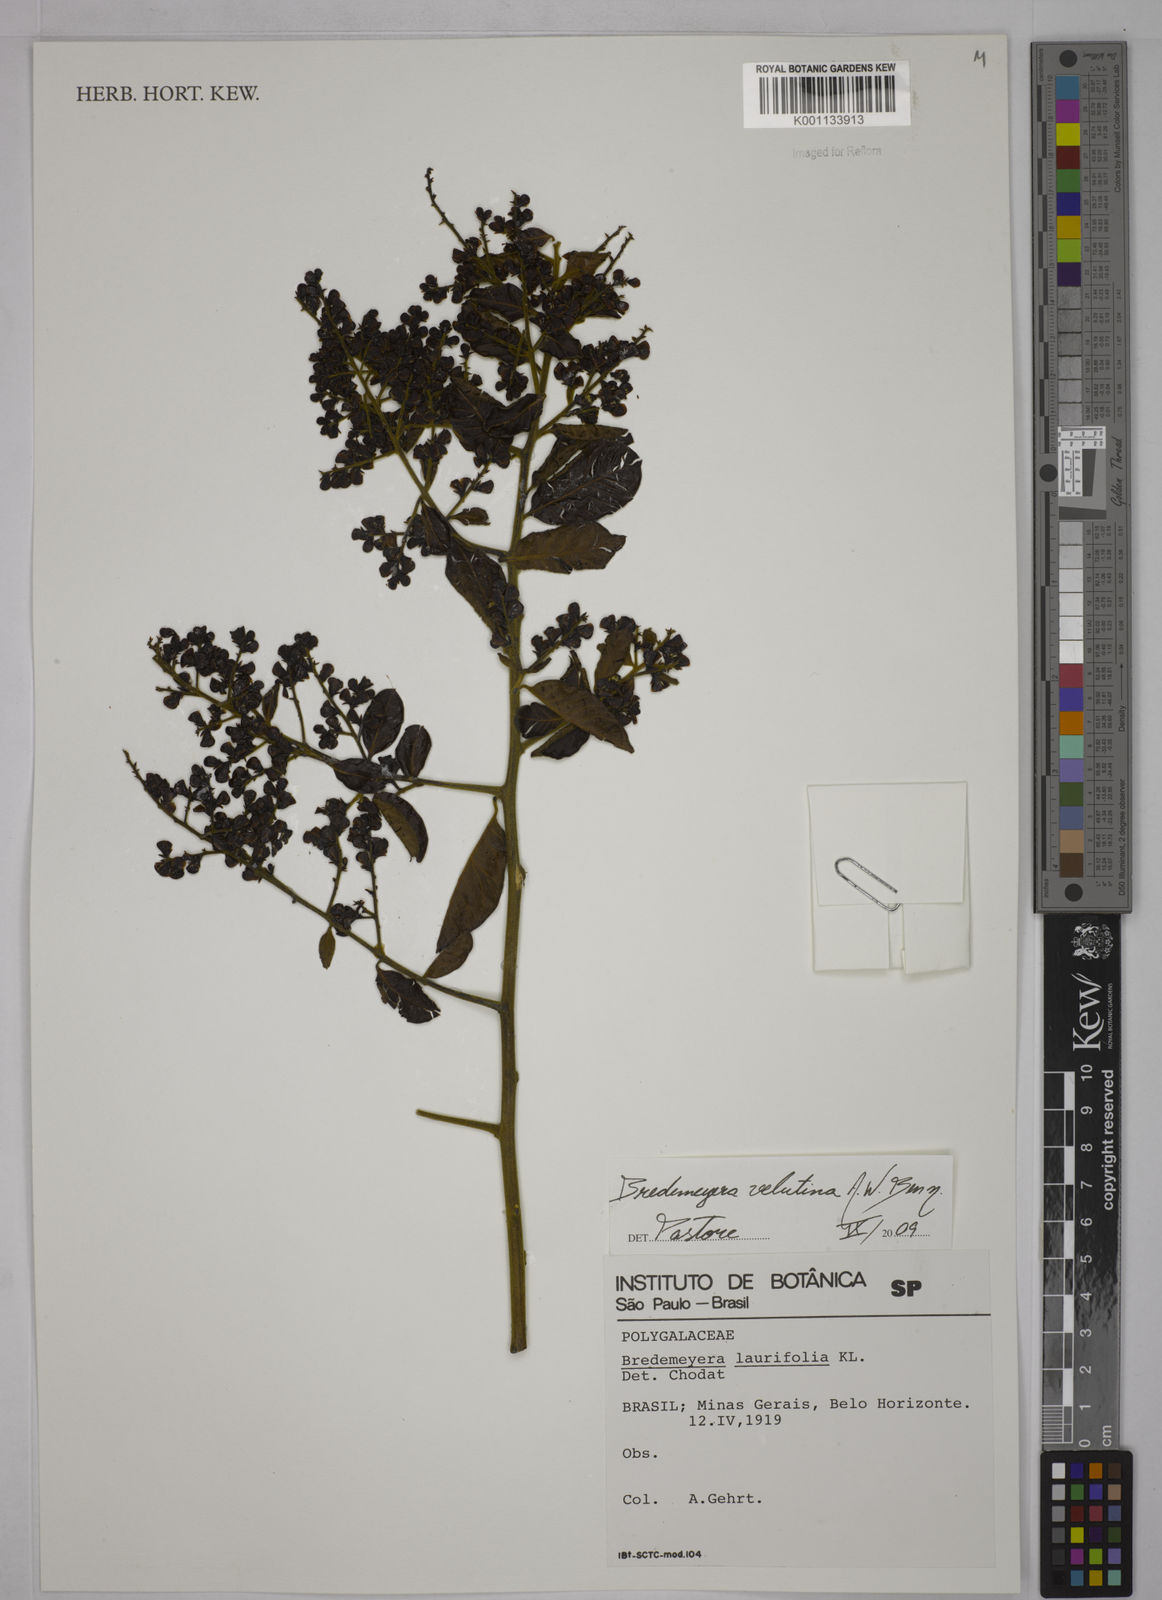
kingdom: Plantae
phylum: Tracheophyta
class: Magnoliopsida
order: Fabales
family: Polygalaceae
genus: Bredemeyera
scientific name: Bredemeyera hebeclada
